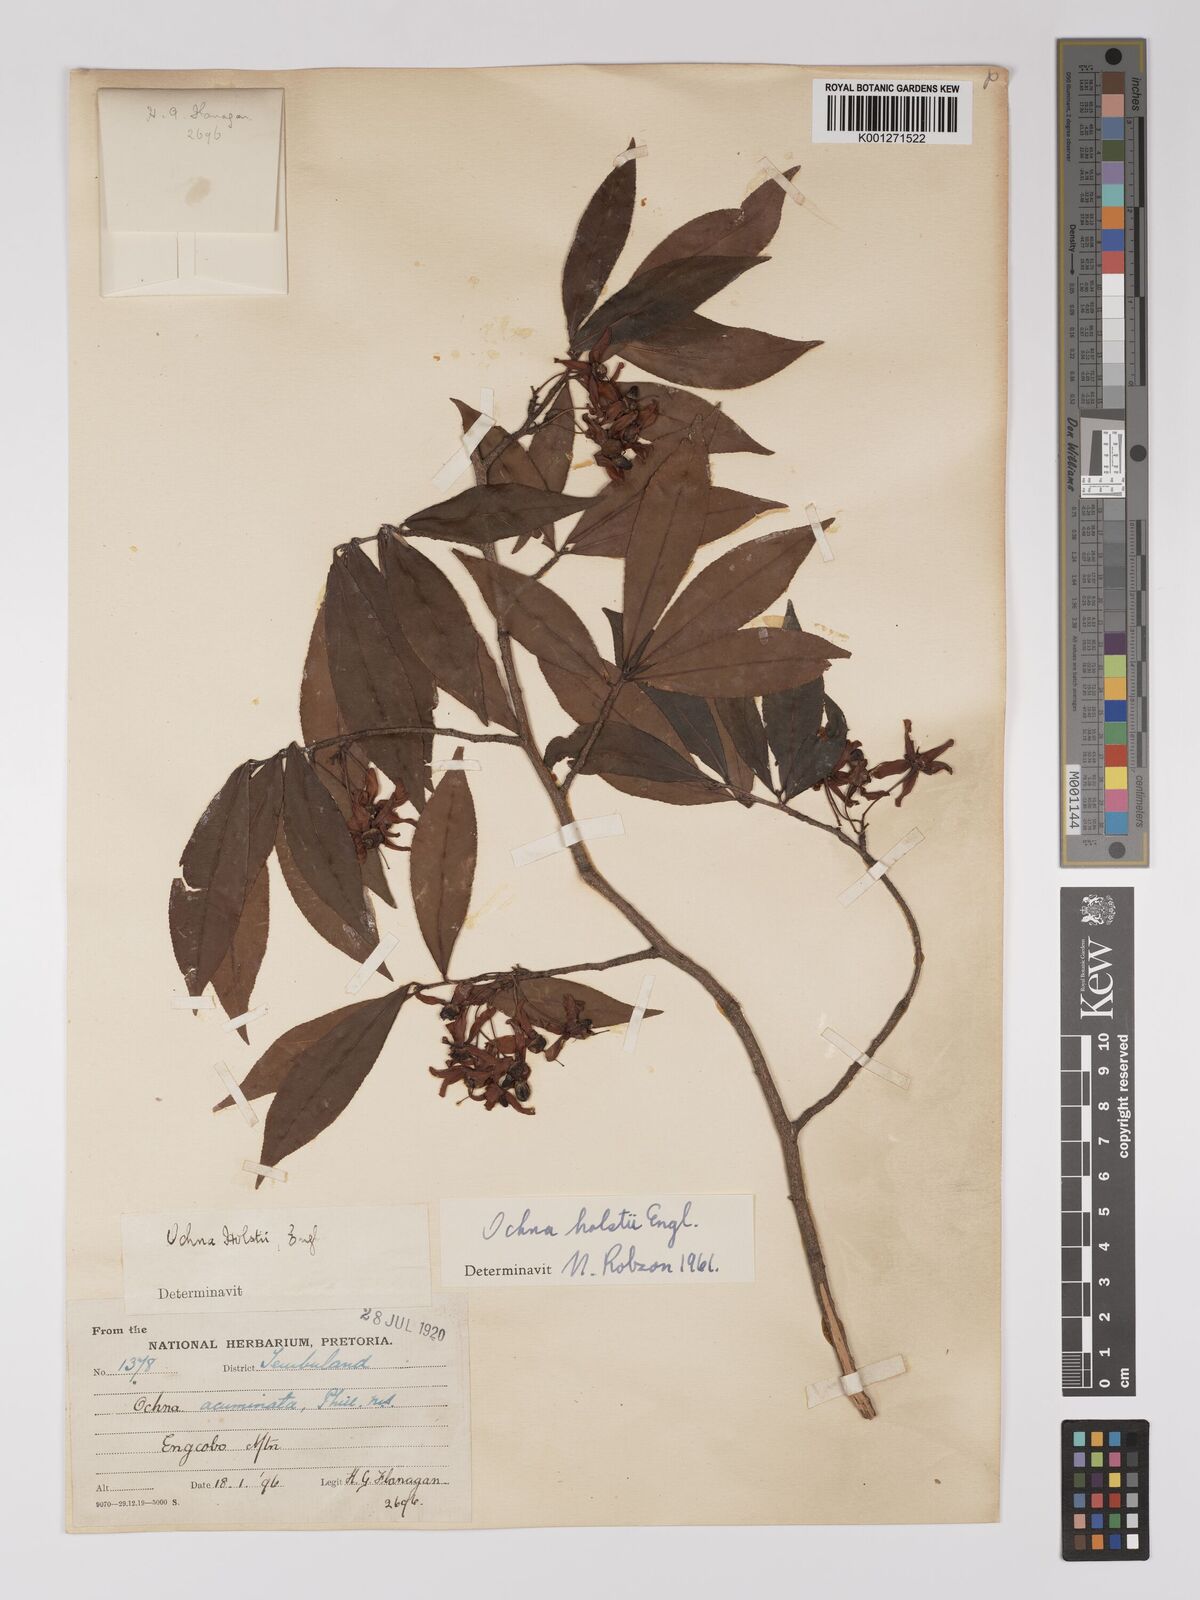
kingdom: Plantae
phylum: Tracheophyta
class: Magnoliopsida
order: Malpighiales
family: Ochnaceae
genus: Ochna
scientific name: Ochna holstii
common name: Red ironwood
